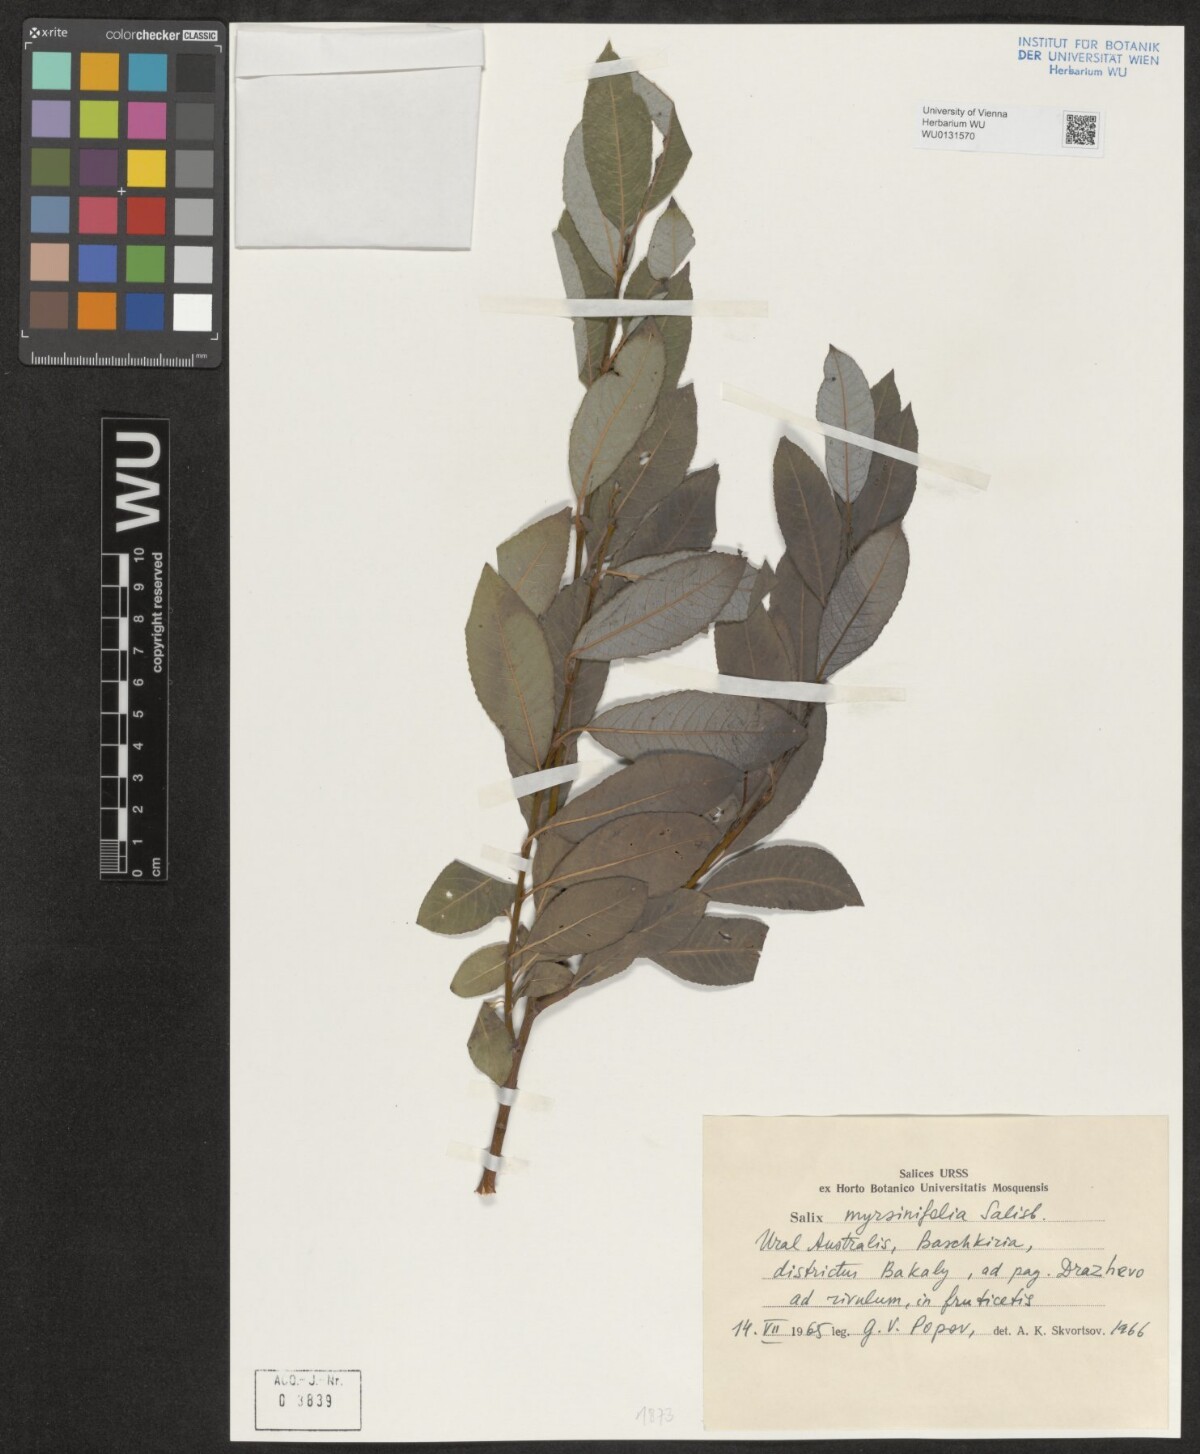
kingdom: Plantae
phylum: Tracheophyta
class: Magnoliopsida
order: Malpighiales
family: Salicaceae
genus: Salix
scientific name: Salix myrsinifolia
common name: Dark-leaved willow
